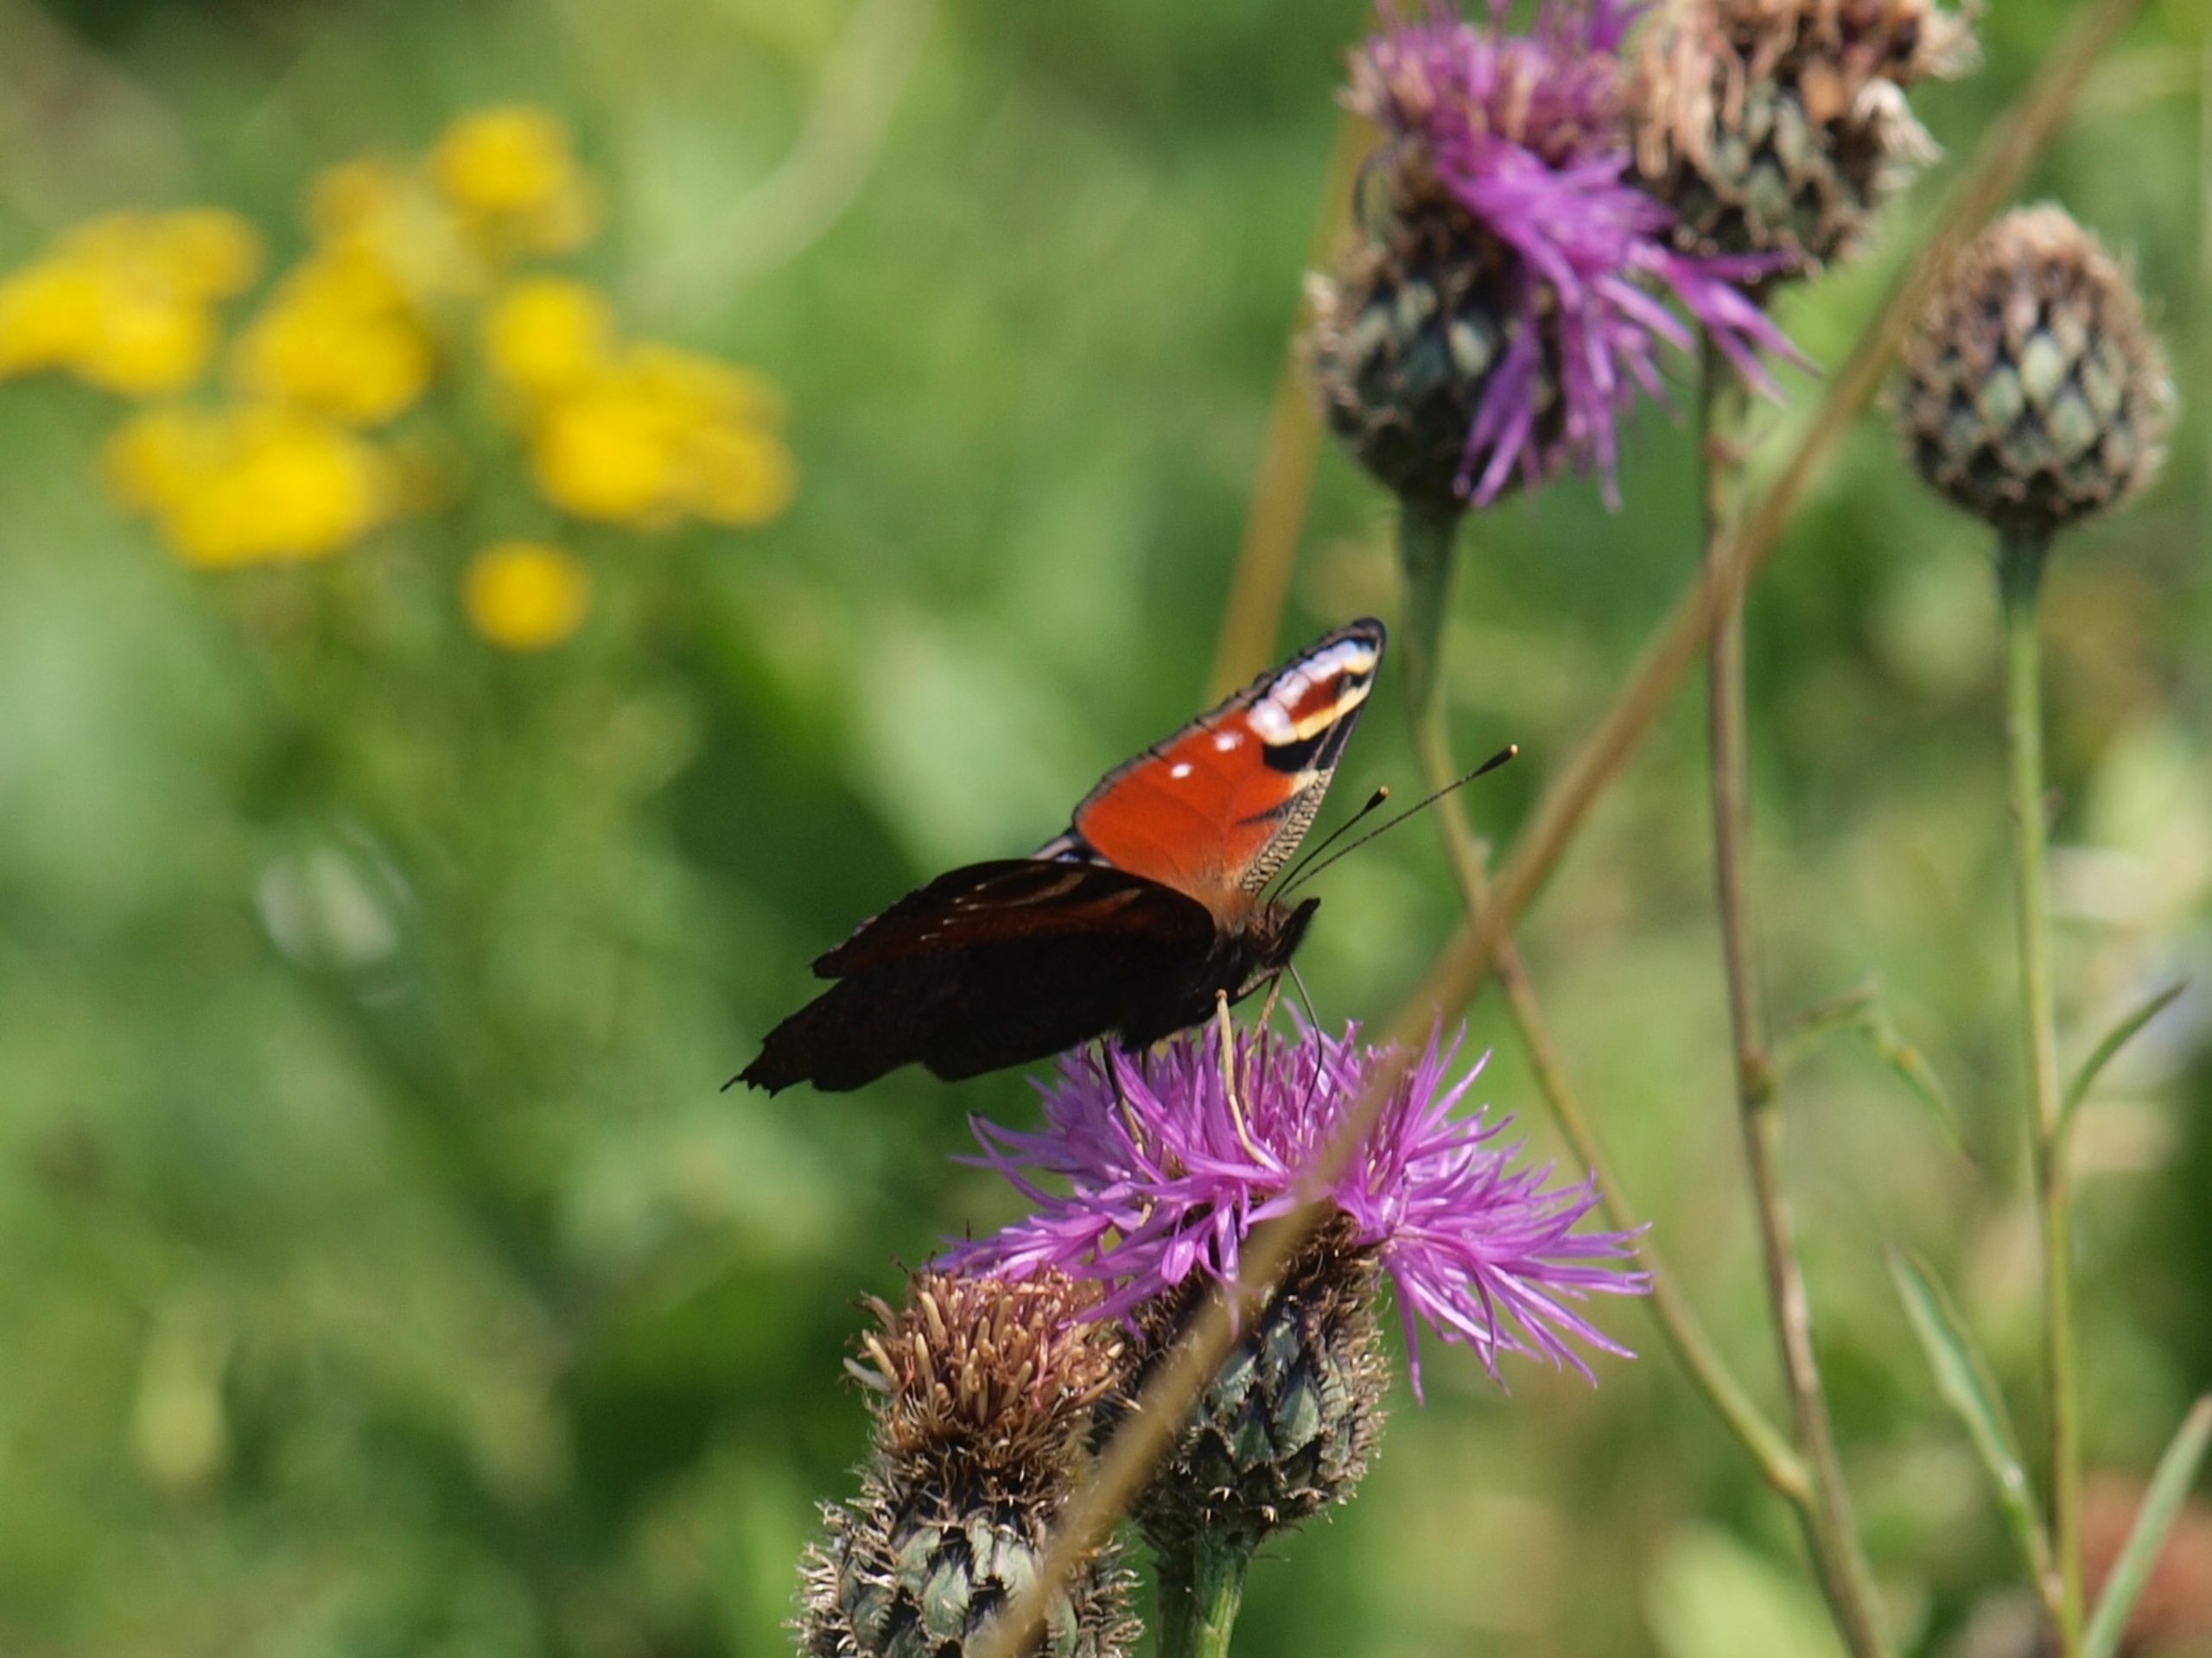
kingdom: Animalia
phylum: Arthropoda
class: Insecta
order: Lepidoptera
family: Nymphalidae
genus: Aglais
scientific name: Aglais io
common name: Dagpåfugleøje
